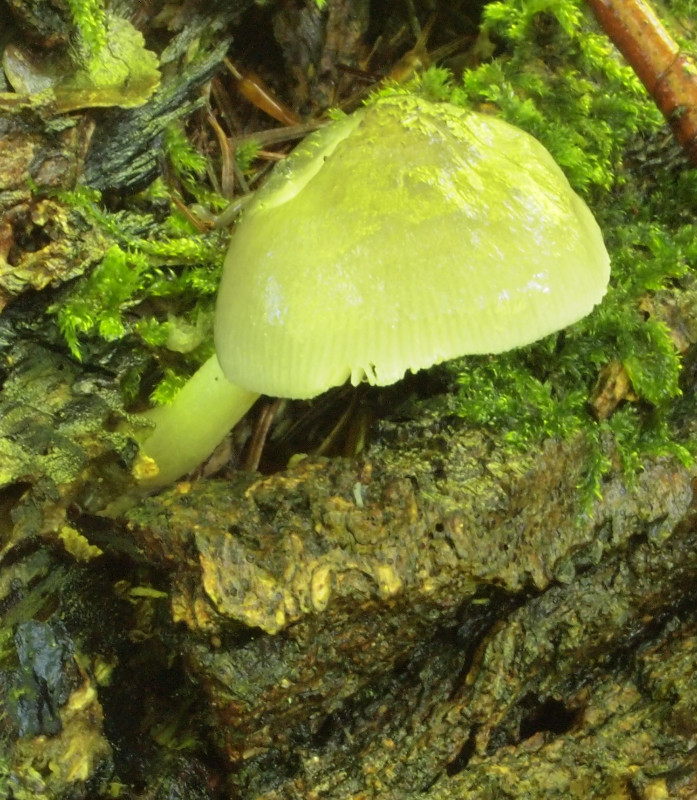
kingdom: Fungi
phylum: Basidiomycota
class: Agaricomycetes
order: Agaricales
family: Pluteaceae
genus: Pluteus
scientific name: Pluteus salicinus
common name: stiv skærmhat
